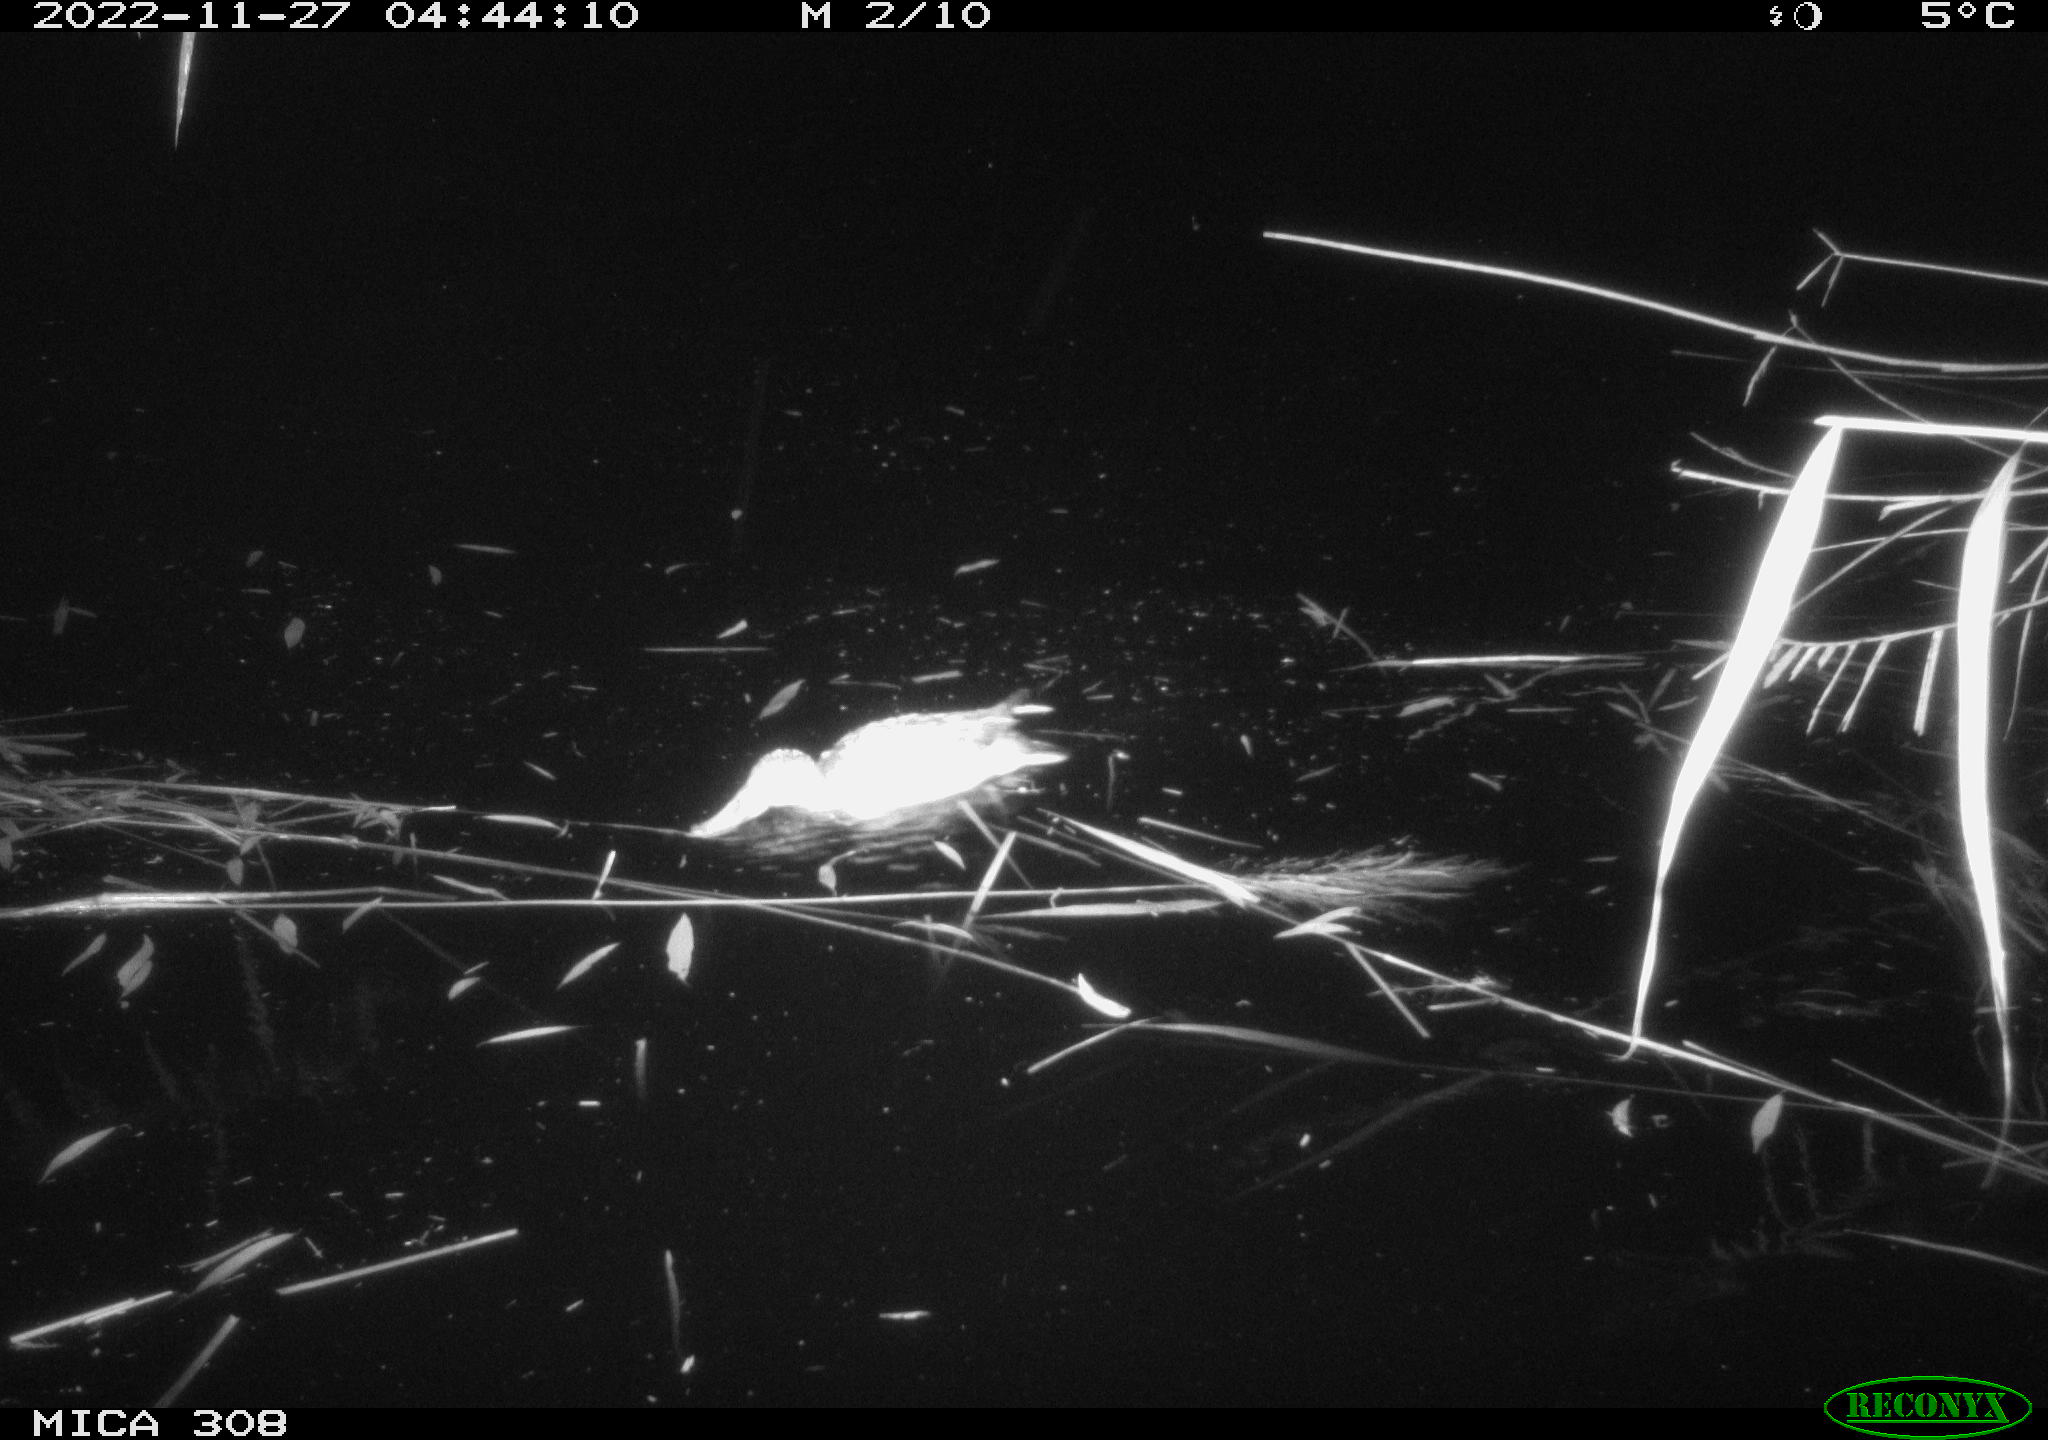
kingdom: Animalia
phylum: Chordata
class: Aves
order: Anseriformes
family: Anatidae
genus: Anas
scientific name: Anas
